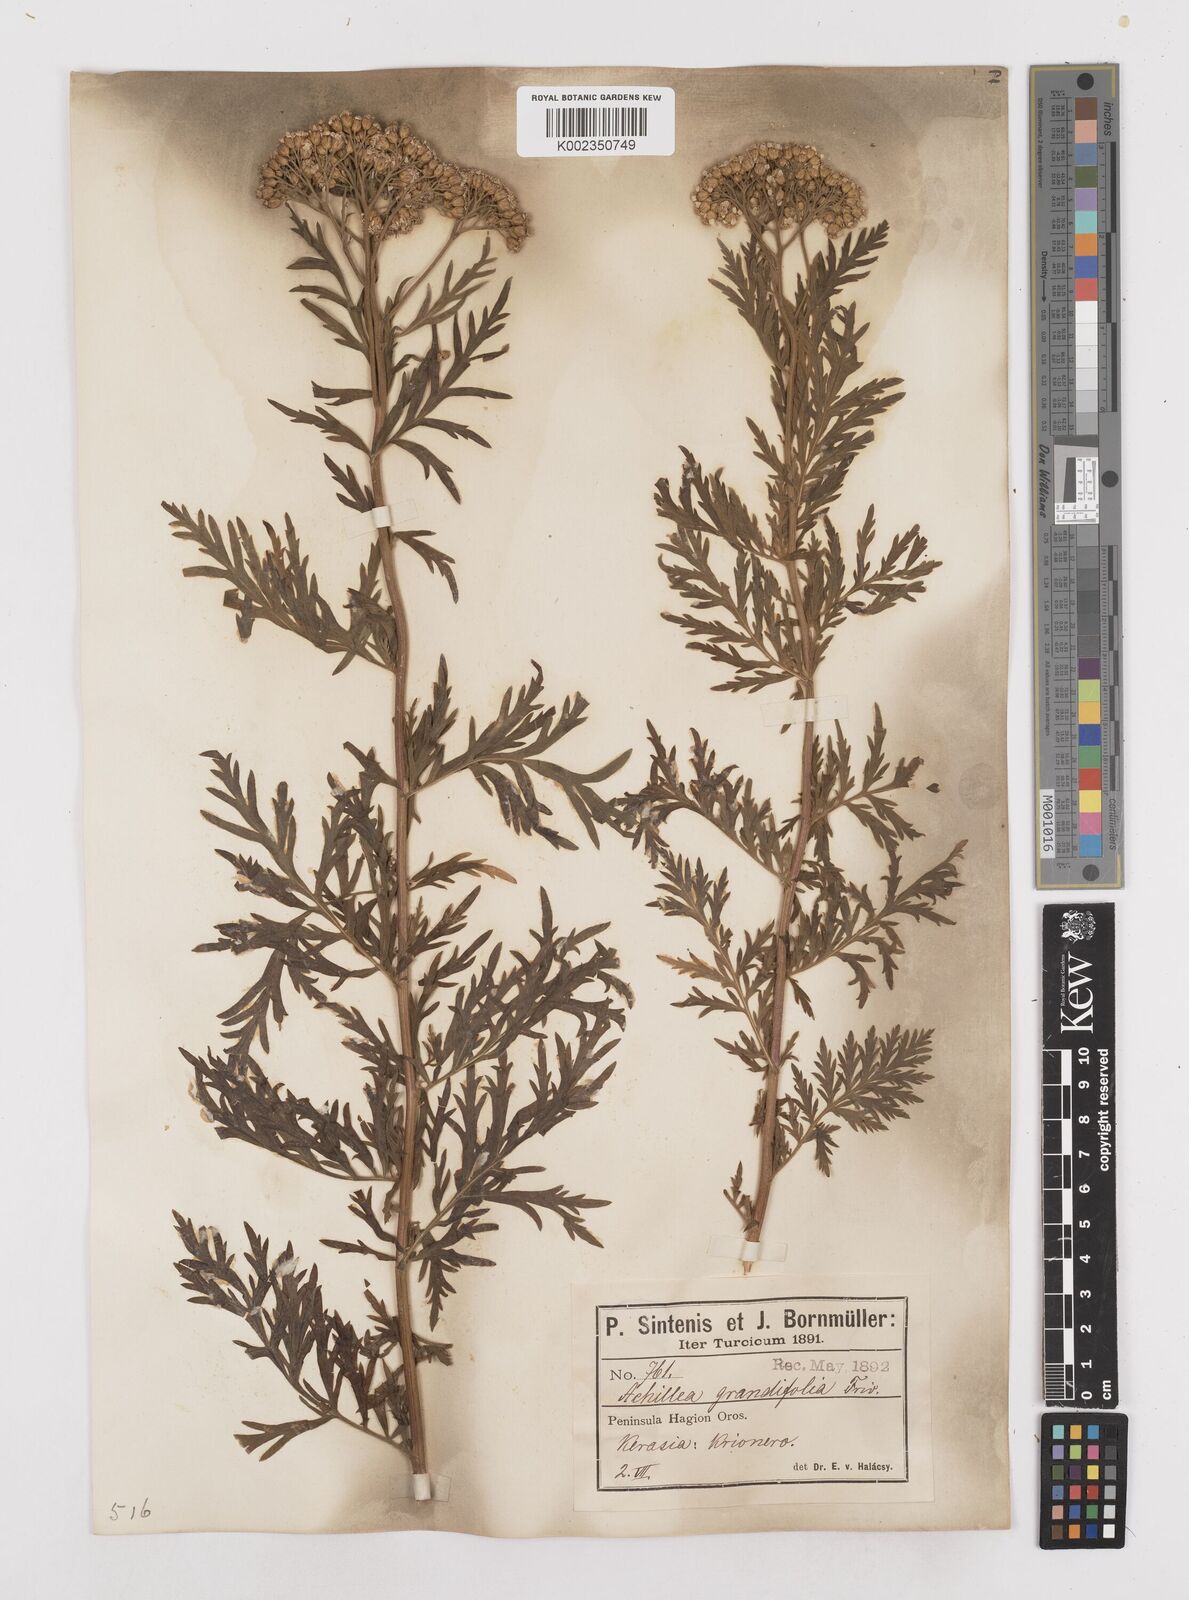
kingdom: Plantae
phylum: Tracheophyta
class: Magnoliopsida
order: Asterales
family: Asteraceae
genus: Achillea
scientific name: Achillea grandifolia
